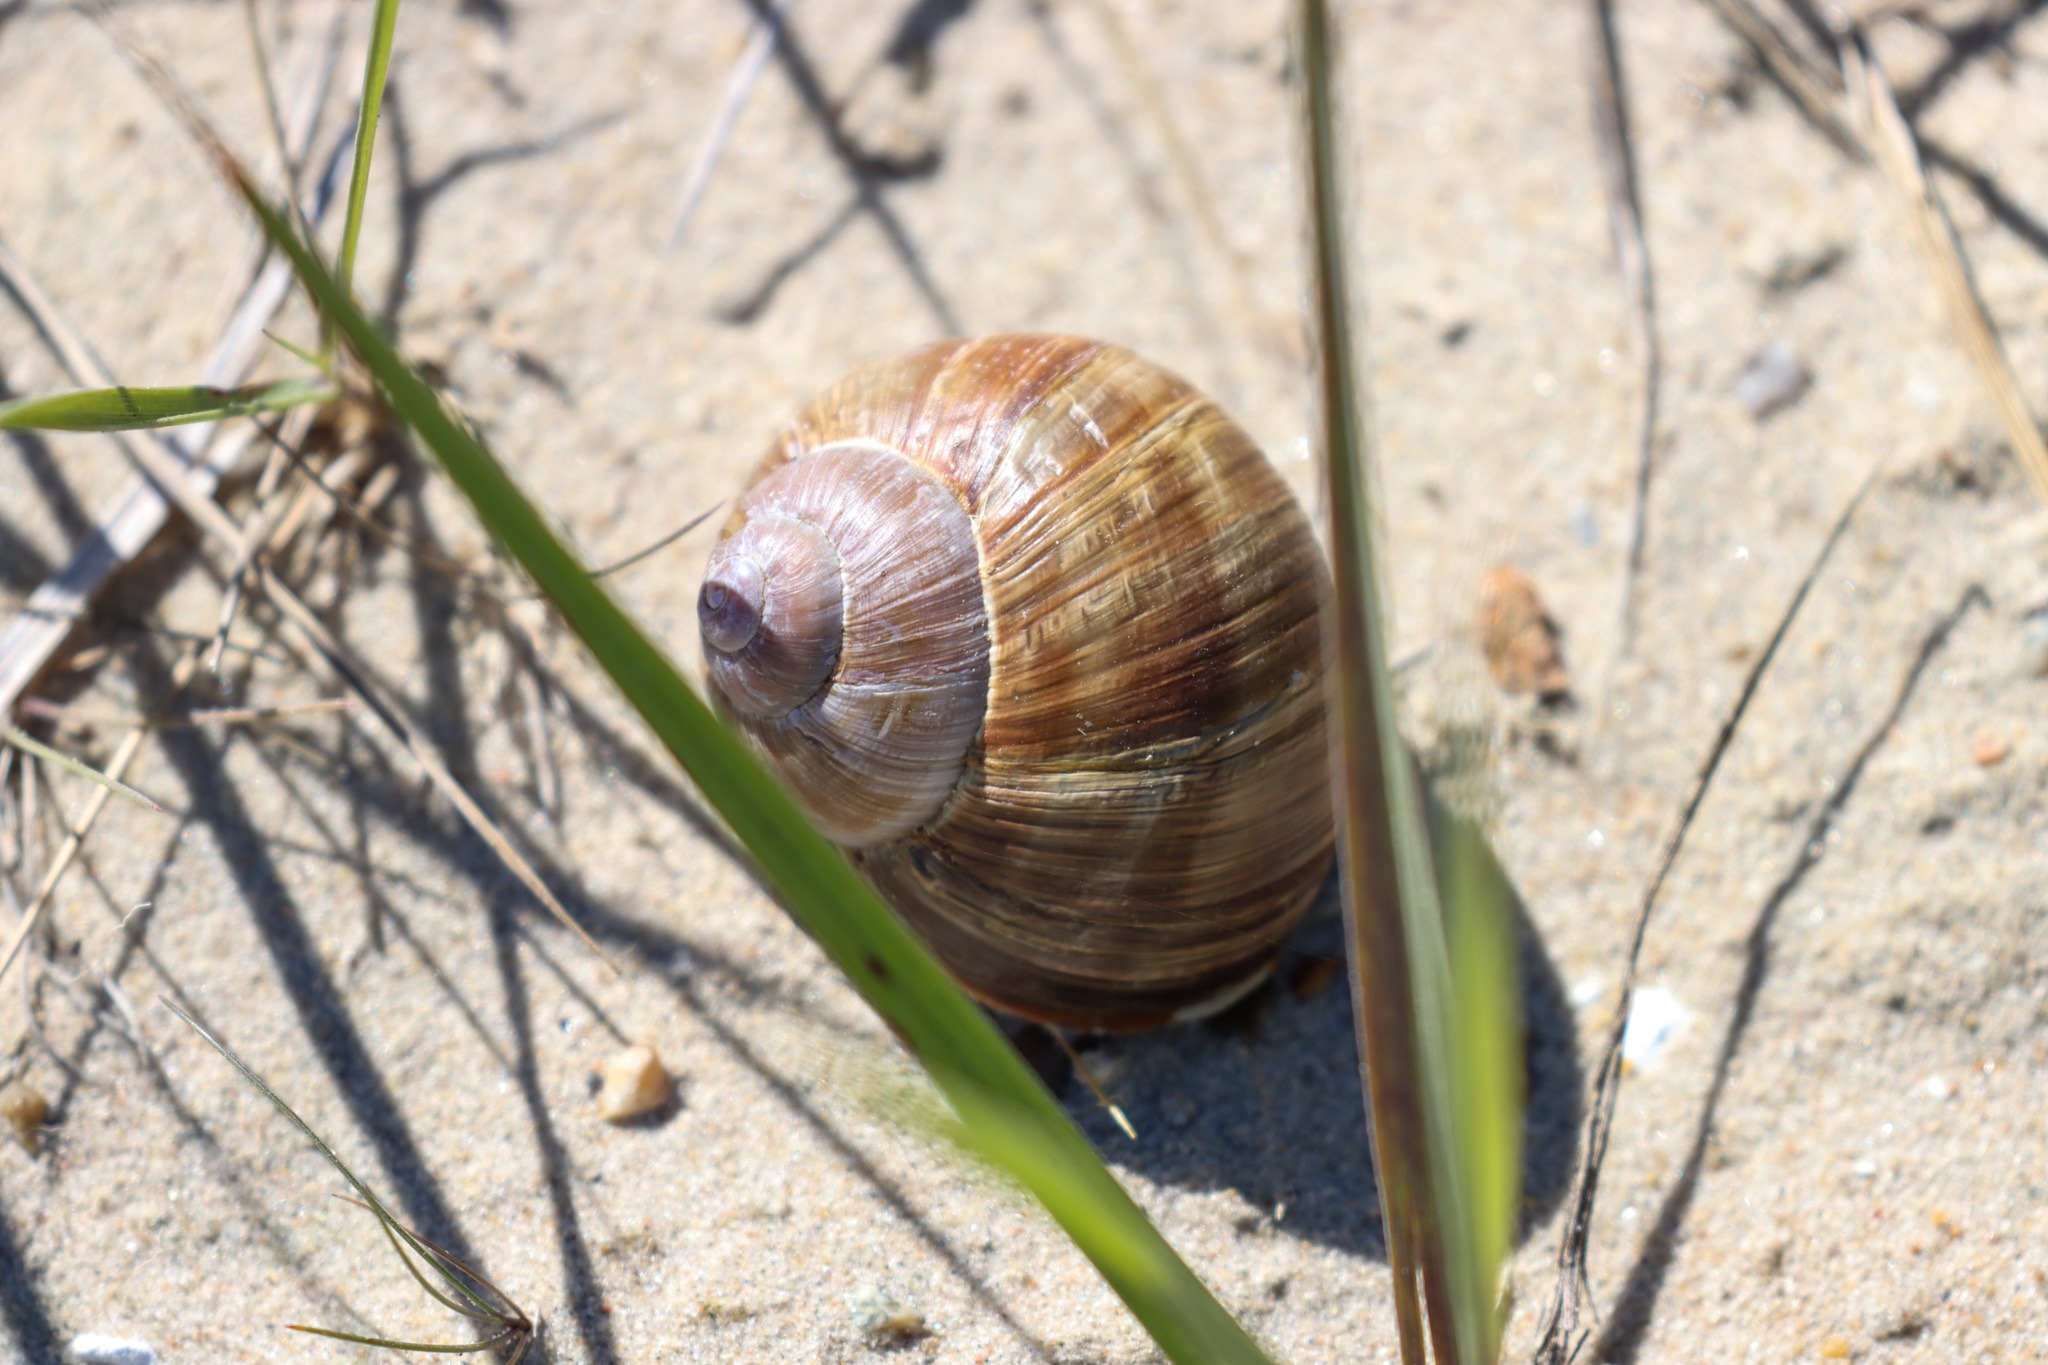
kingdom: Animalia
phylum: Mollusca
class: Gastropoda
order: Stylommatophora
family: Helicidae
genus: Helix
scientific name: Helix pomatia
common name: Vinbjergsnegl
